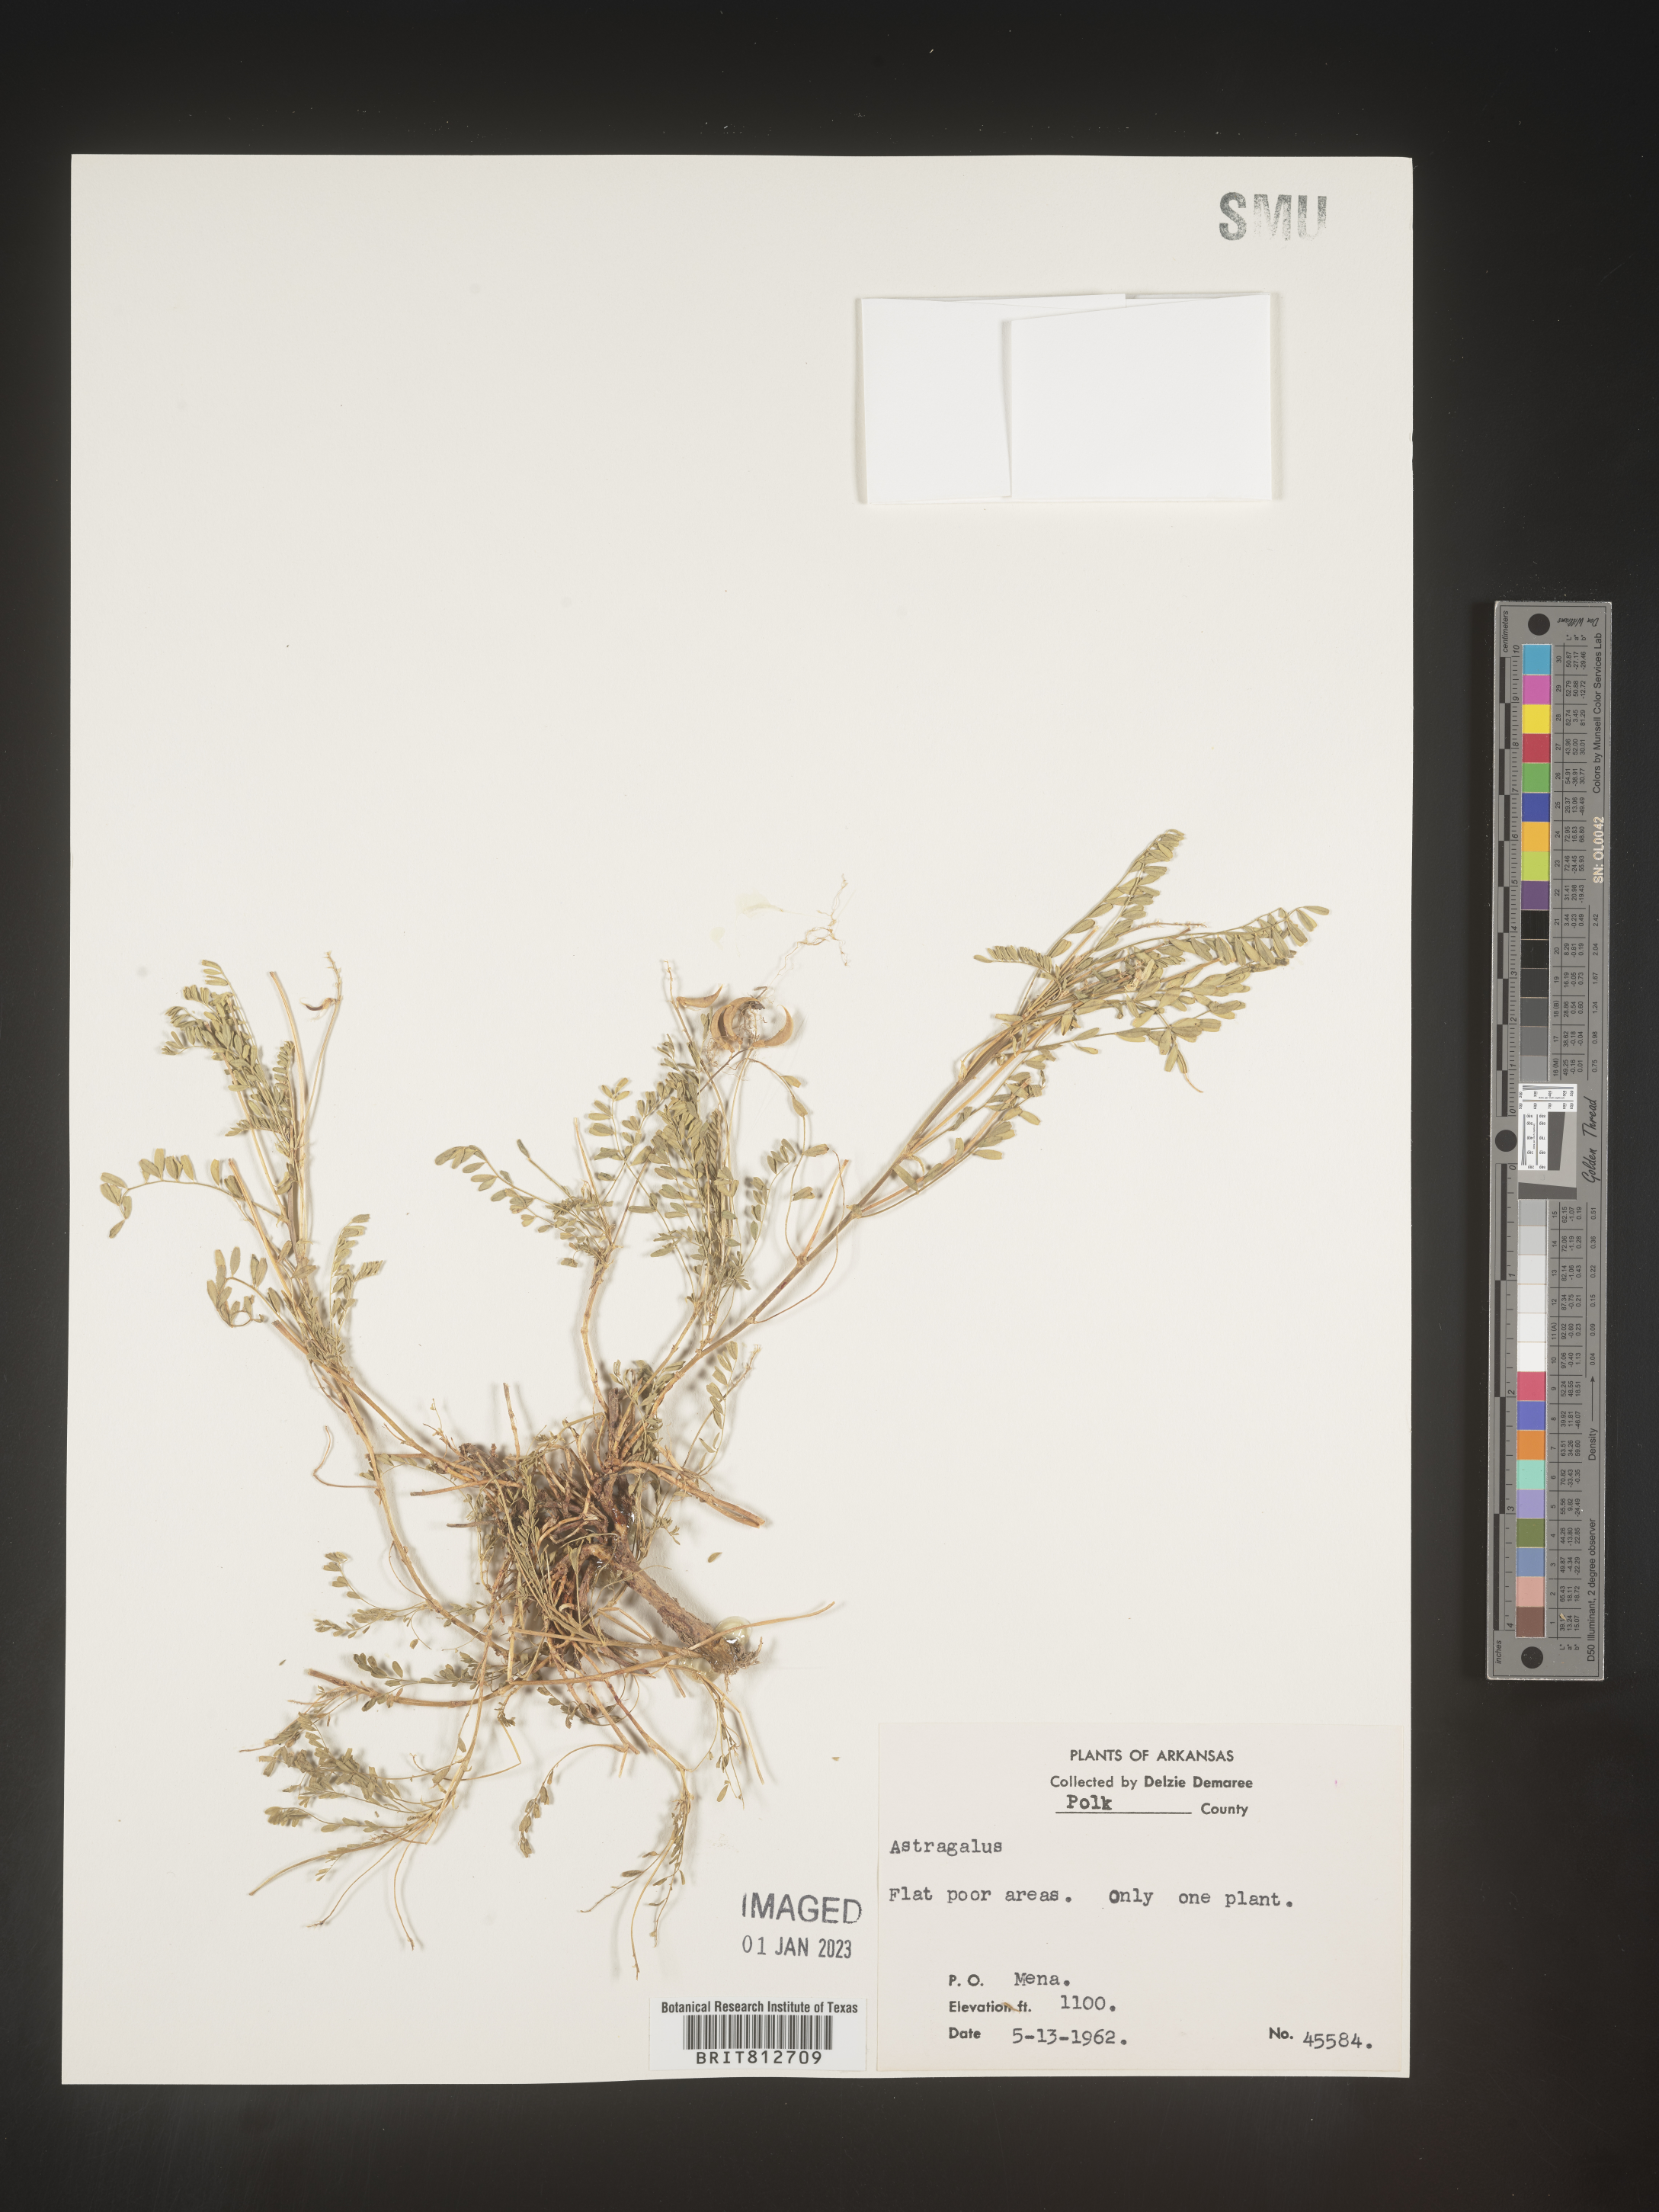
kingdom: Plantae
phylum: Tracheophyta
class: Magnoliopsida
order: Fabales
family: Fabaceae
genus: Astragalus
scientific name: Astragalus
